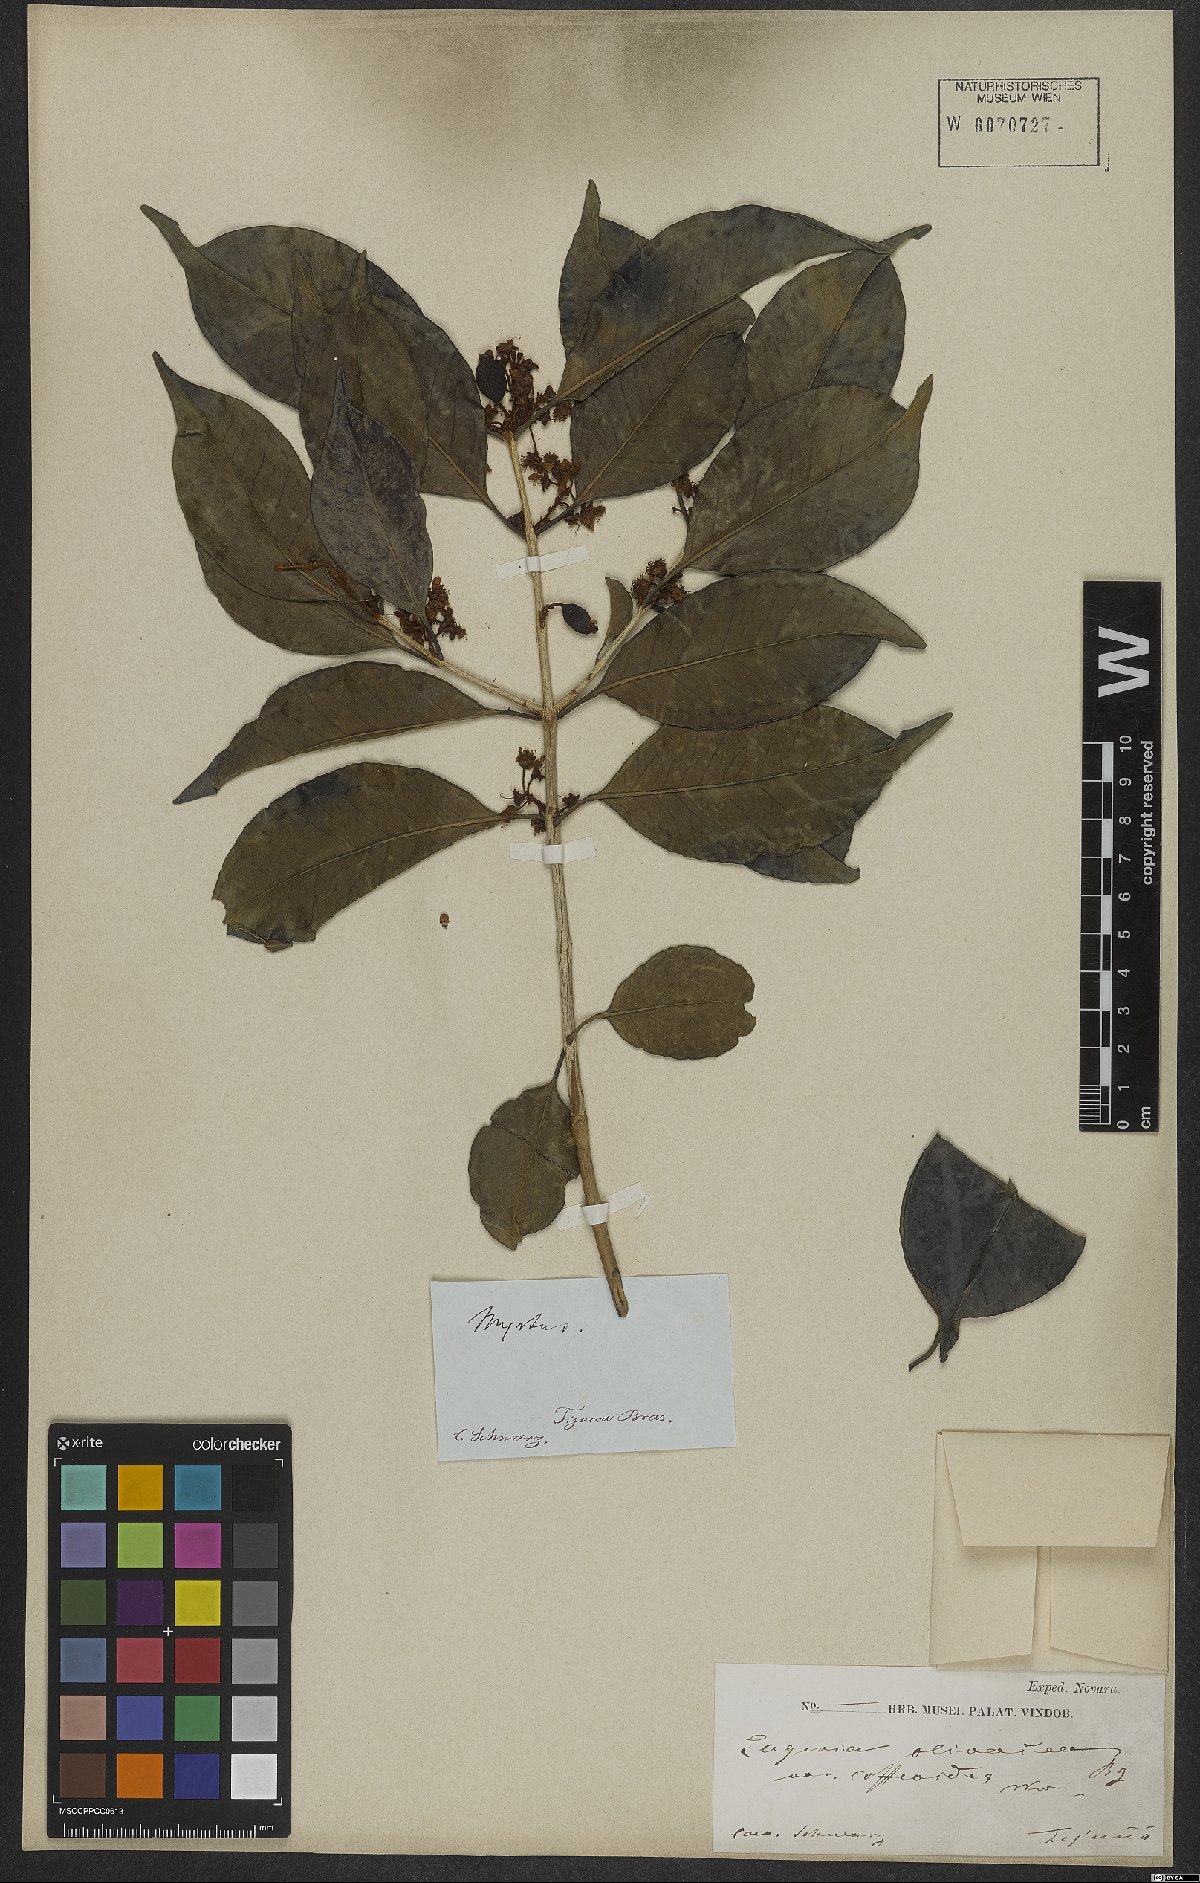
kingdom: Plantae
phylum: Tracheophyta
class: Magnoliopsida
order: Myrtales
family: Myrtaceae
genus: Eugenia
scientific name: Eugenia pruniformis
